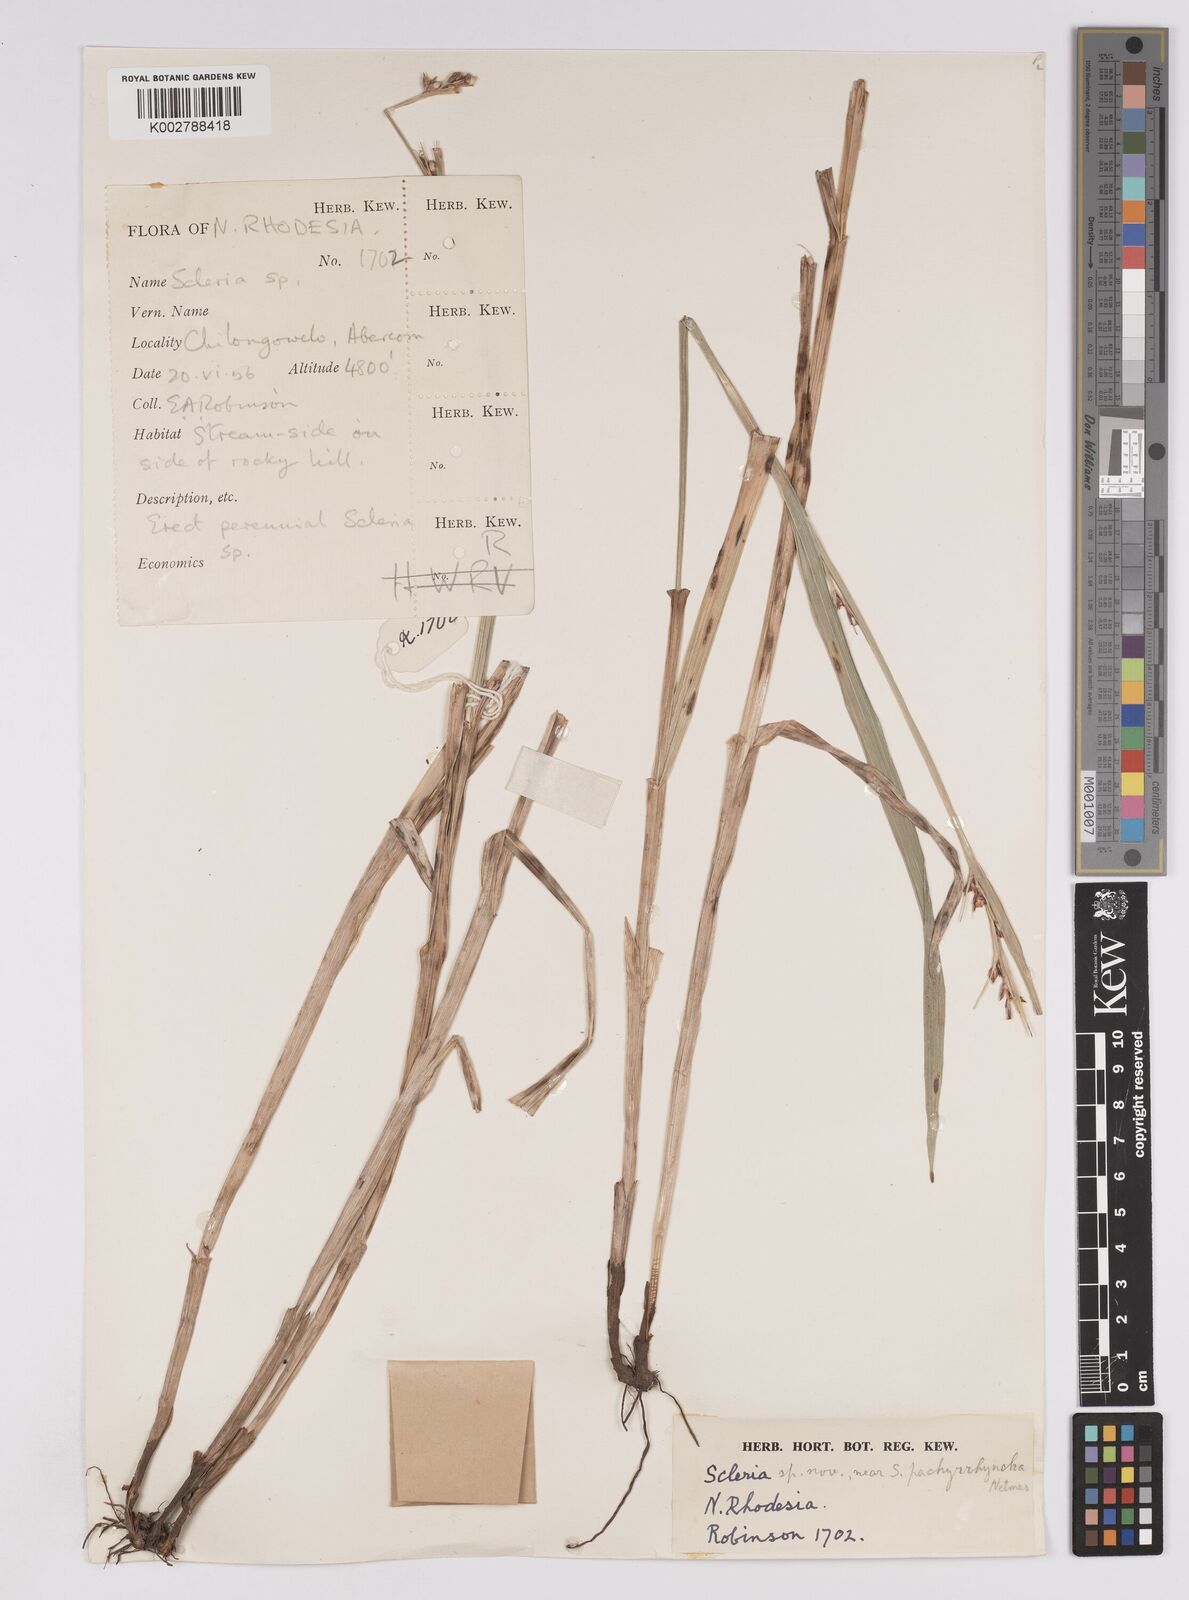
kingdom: Plantae
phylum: Tracheophyta
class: Liliopsida
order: Poales
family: Cyperaceae
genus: Scleria
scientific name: Scleria lagoensis
